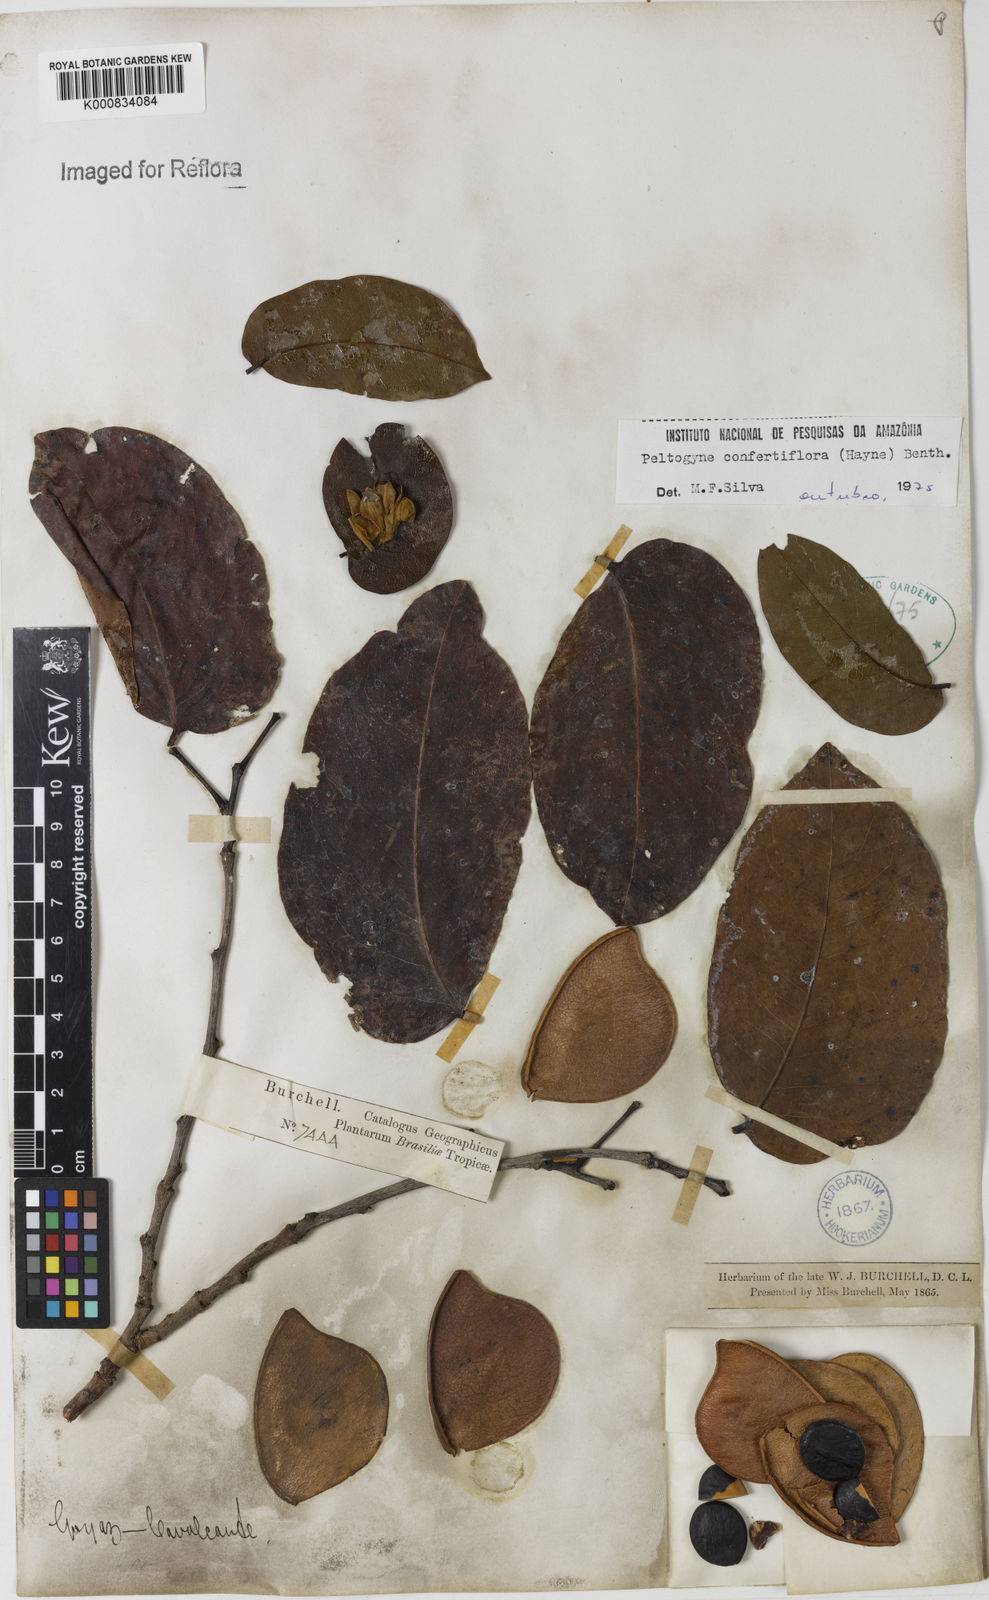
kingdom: Plantae
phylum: Tracheophyta
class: Magnoliopsida
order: Fabales
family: Fabaceae
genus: Peltogyne
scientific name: Peltogyne confertiflora
